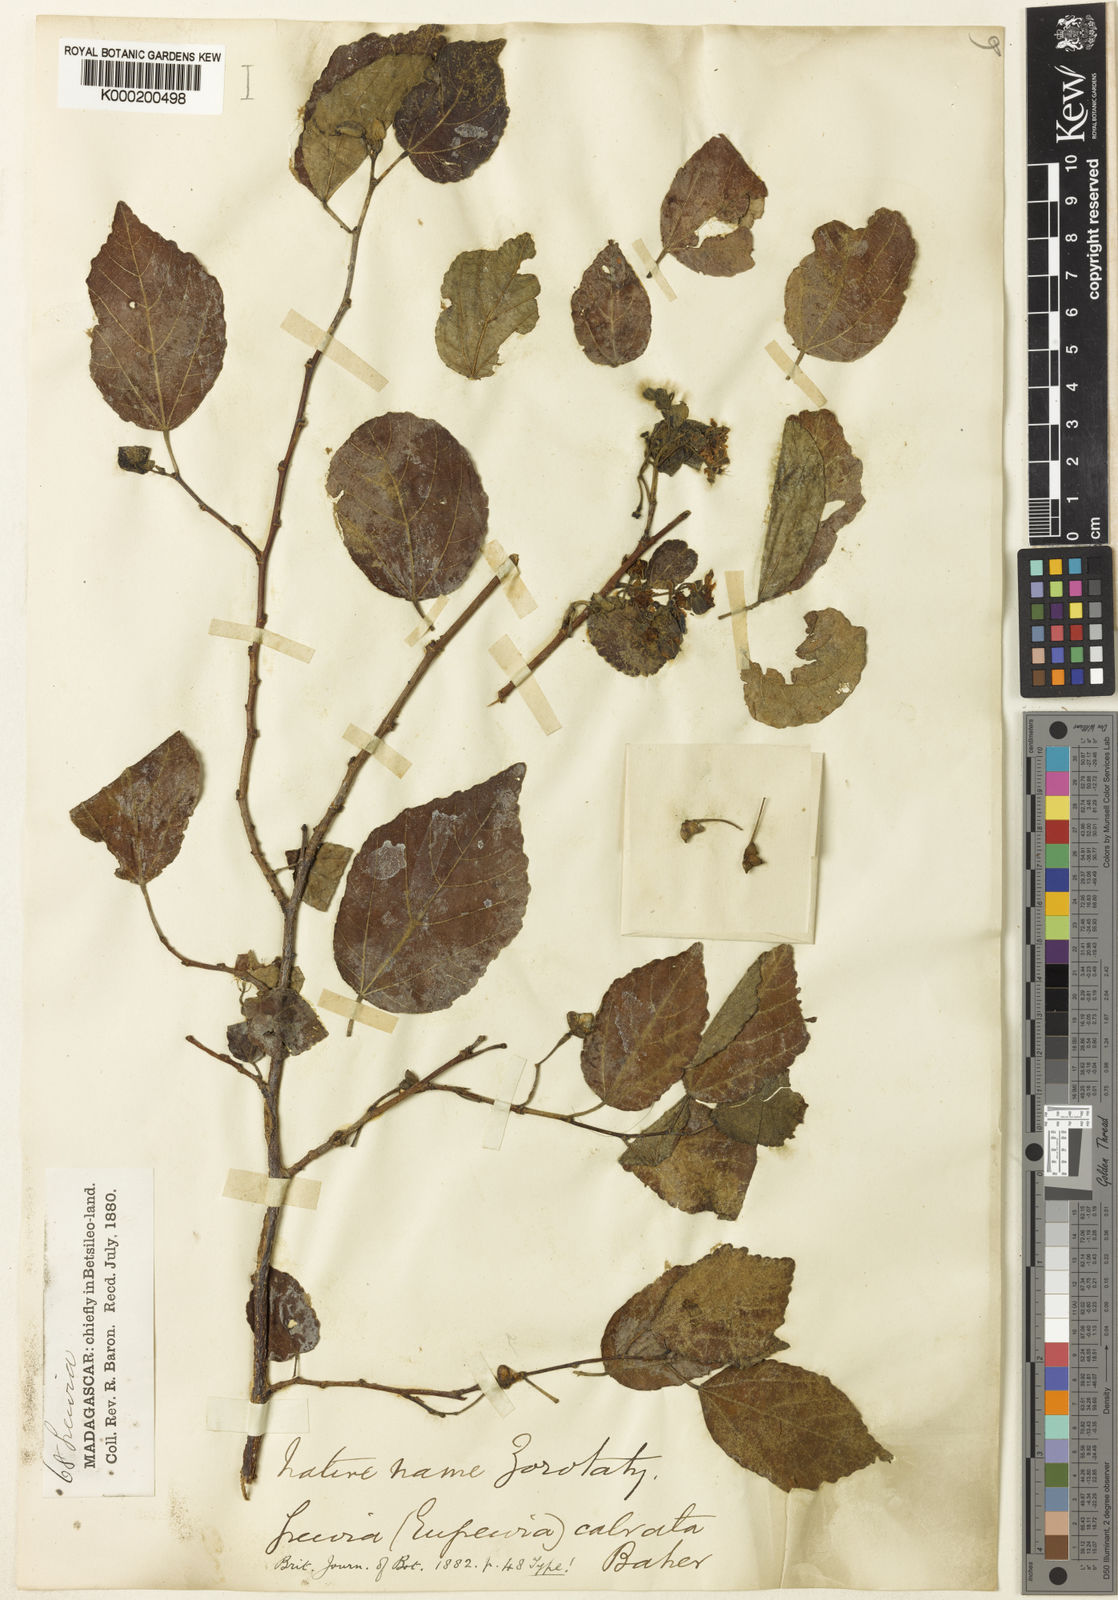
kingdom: Plantae
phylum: Tracheophyta
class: Magnoliopsida
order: Malvales
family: Malvaceae
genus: Grewia
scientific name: Grewia calvata
